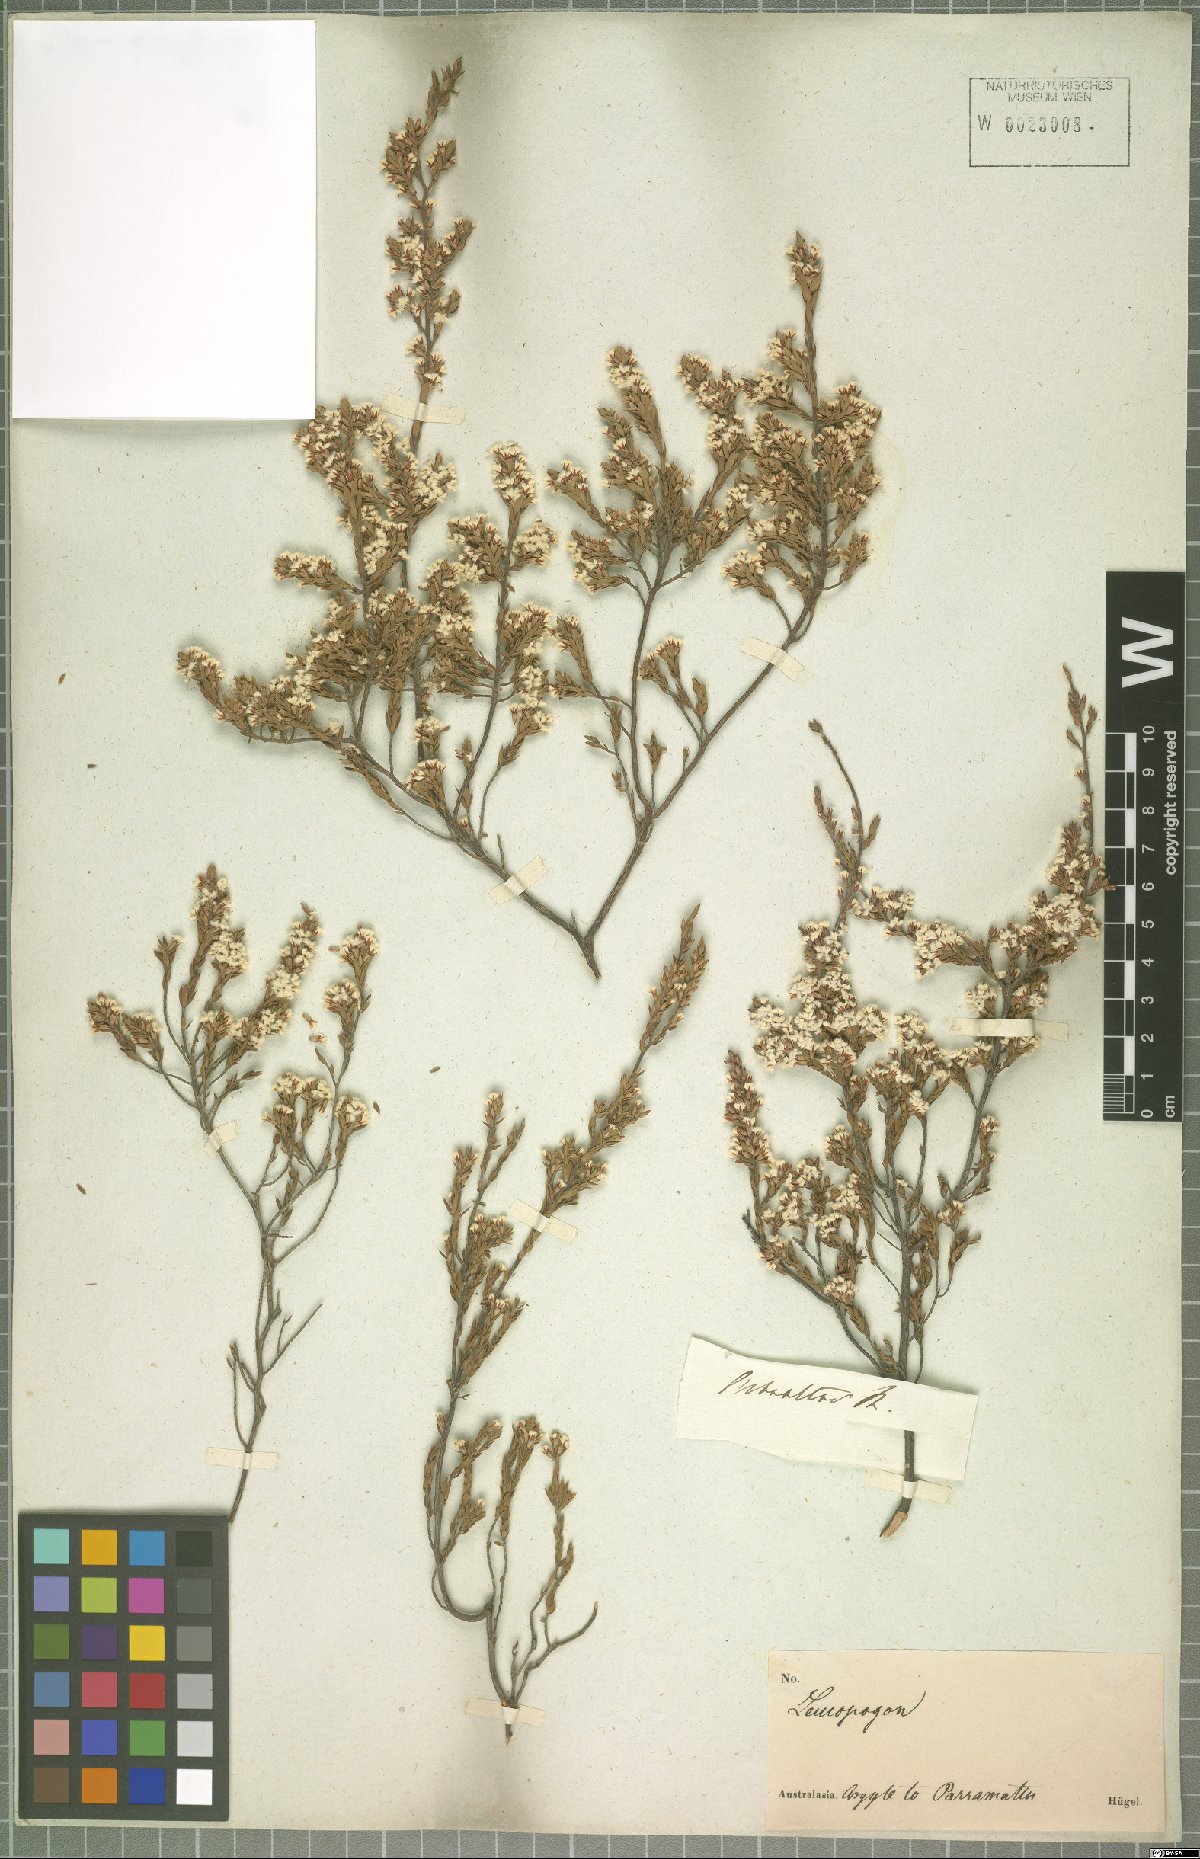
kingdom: Plantae
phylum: Tracheophyta
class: Magnoliopsida
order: Ericales
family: Ericaceae
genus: Leucopogon
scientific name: Leucopogon
